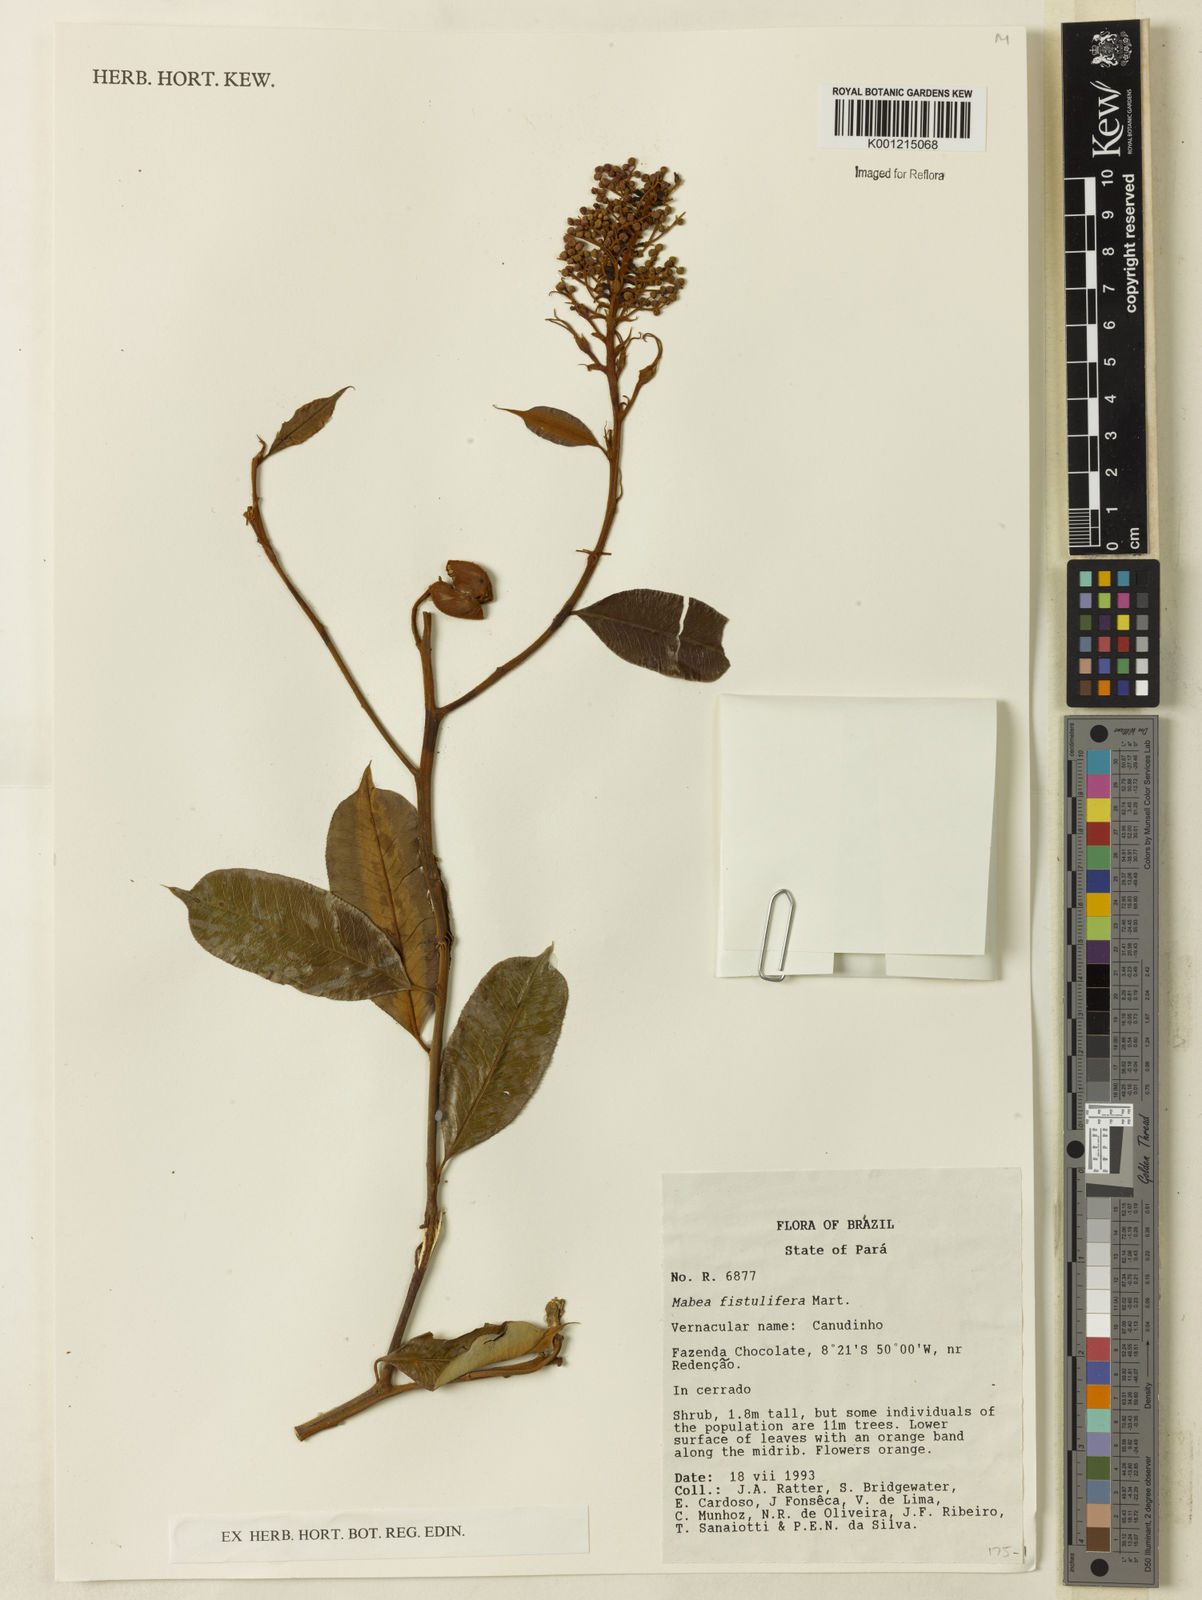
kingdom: Plantae
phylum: Tracheophyta
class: Magnoliopsida
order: Malpighiales
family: Euphorbiaceae
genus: Mabea
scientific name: Mabea fistulifera
